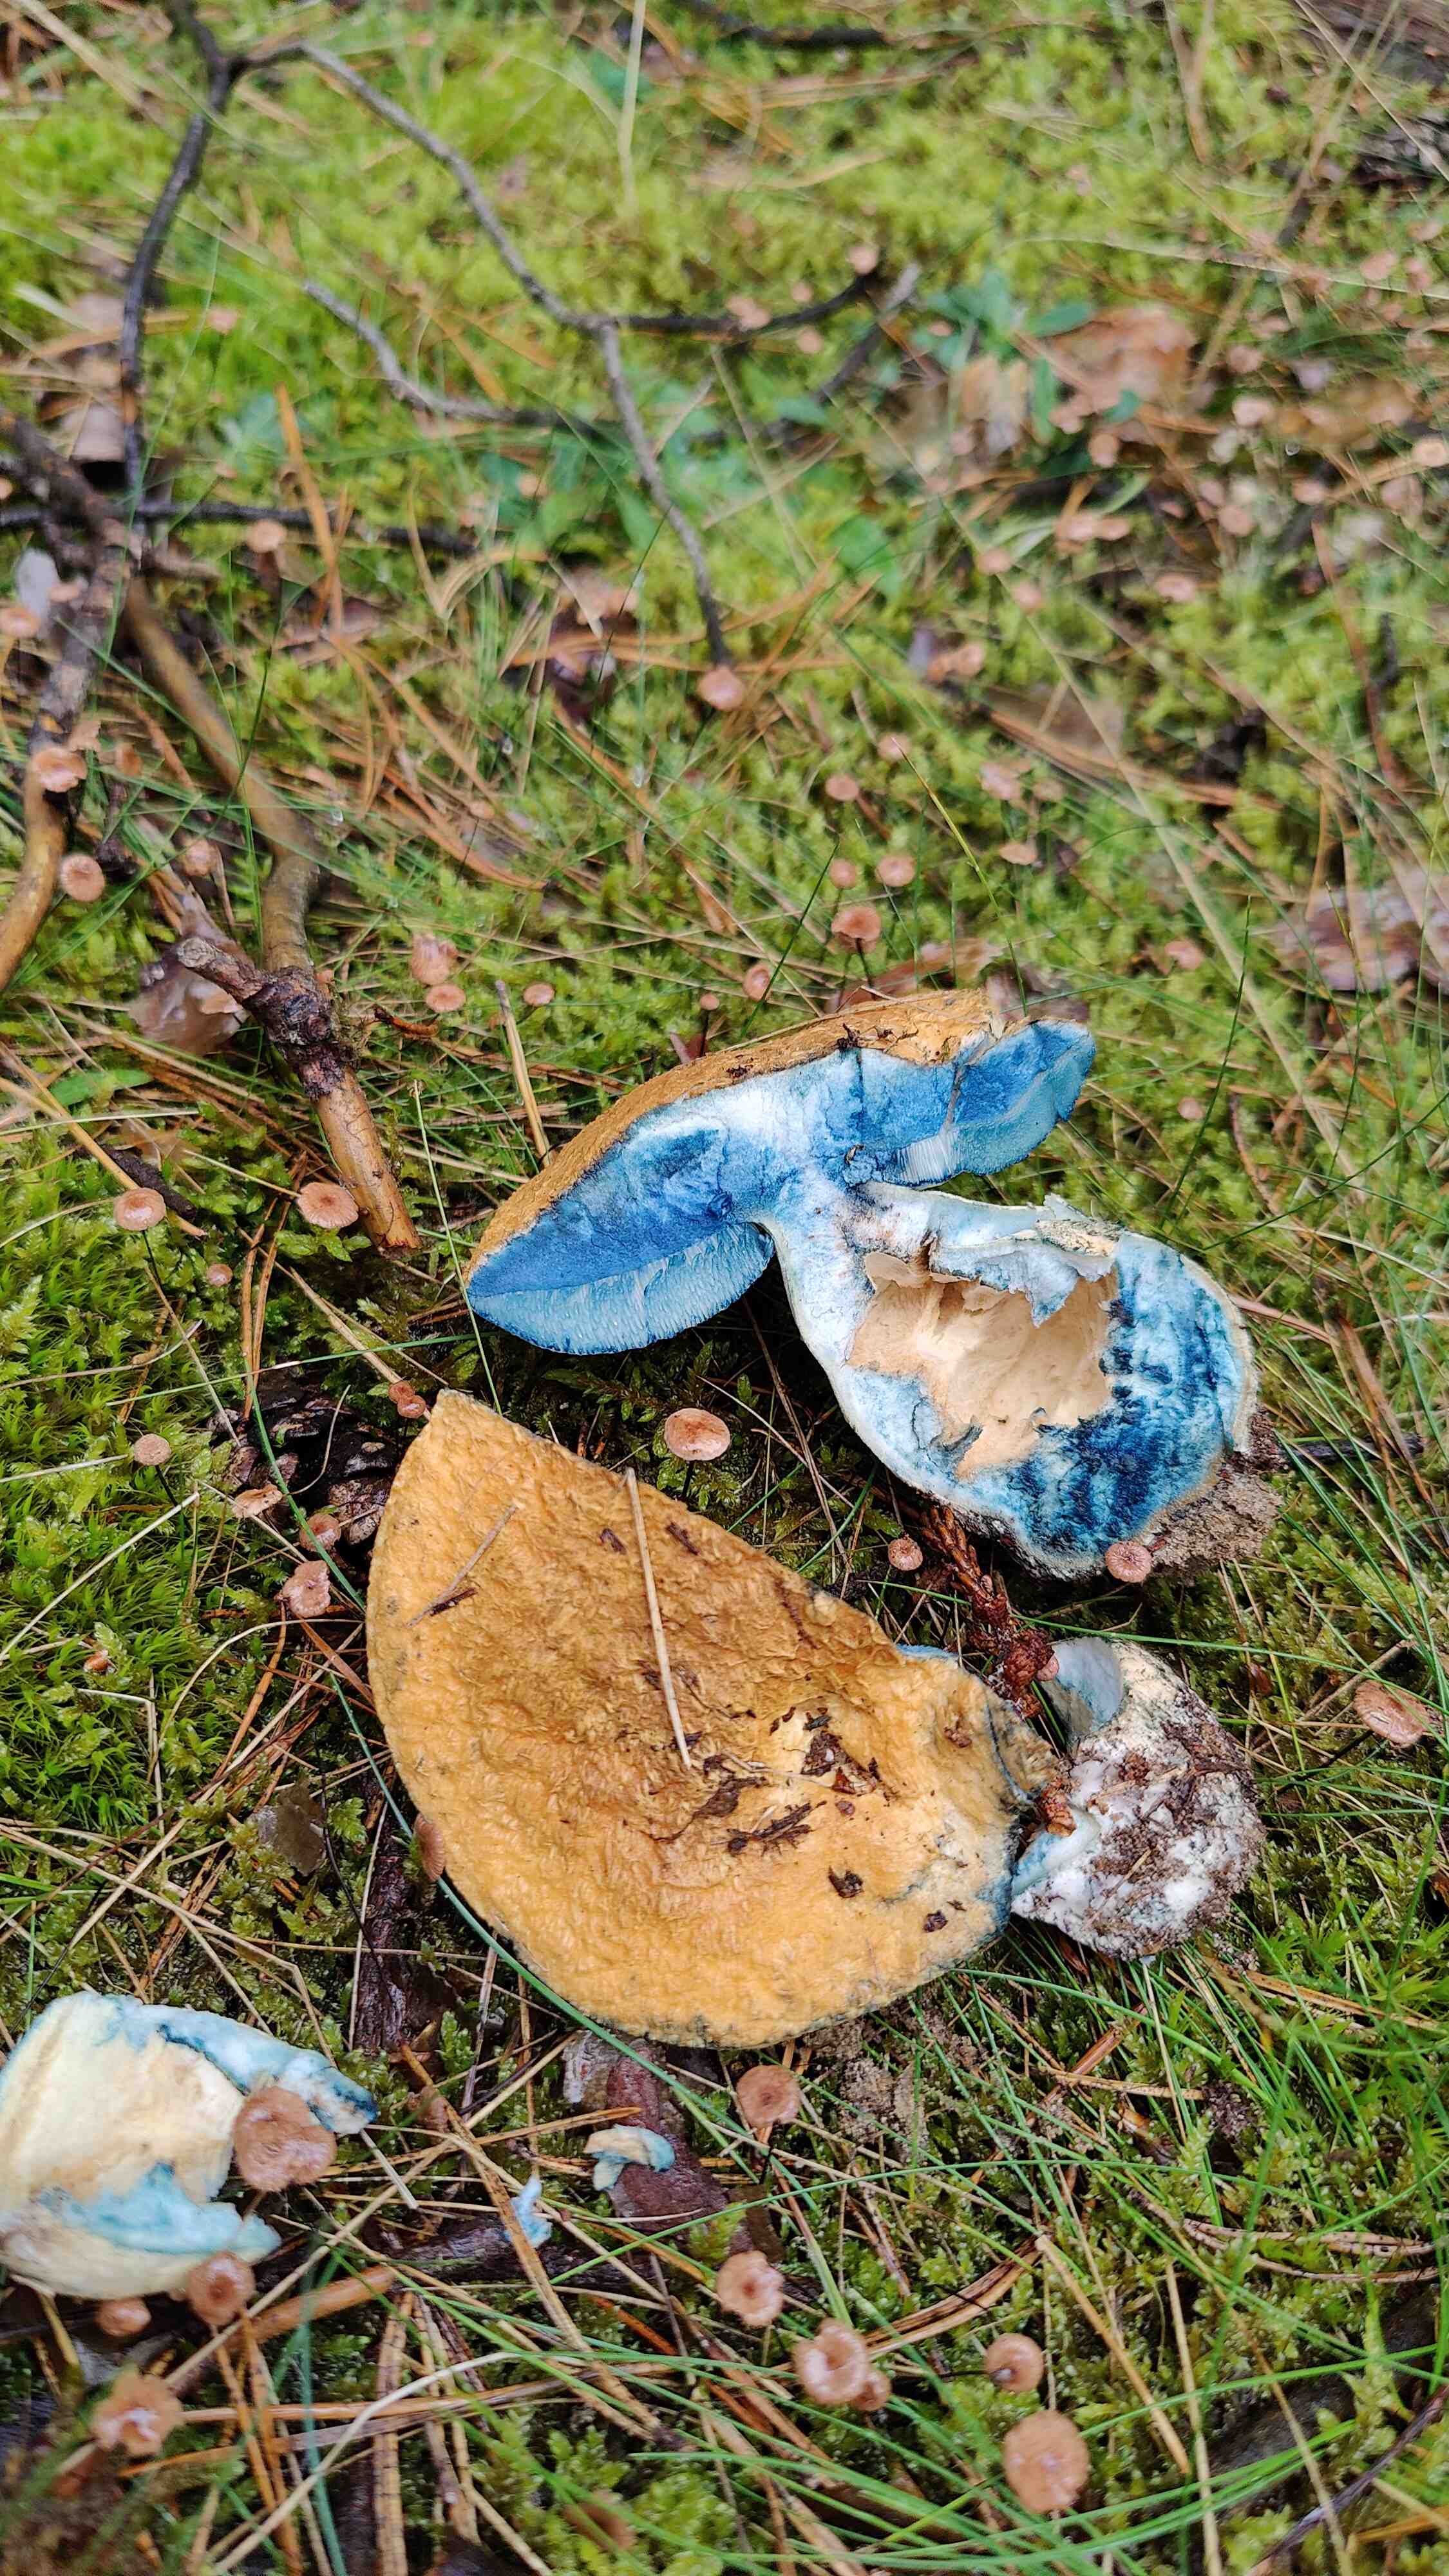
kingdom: Fungi
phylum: Basidiomycota
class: Agaricomycetes
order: Boletales
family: Gyroporaceae
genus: Gyroporus
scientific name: Gyroporus cyanescens
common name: blånende kammerrørhat
